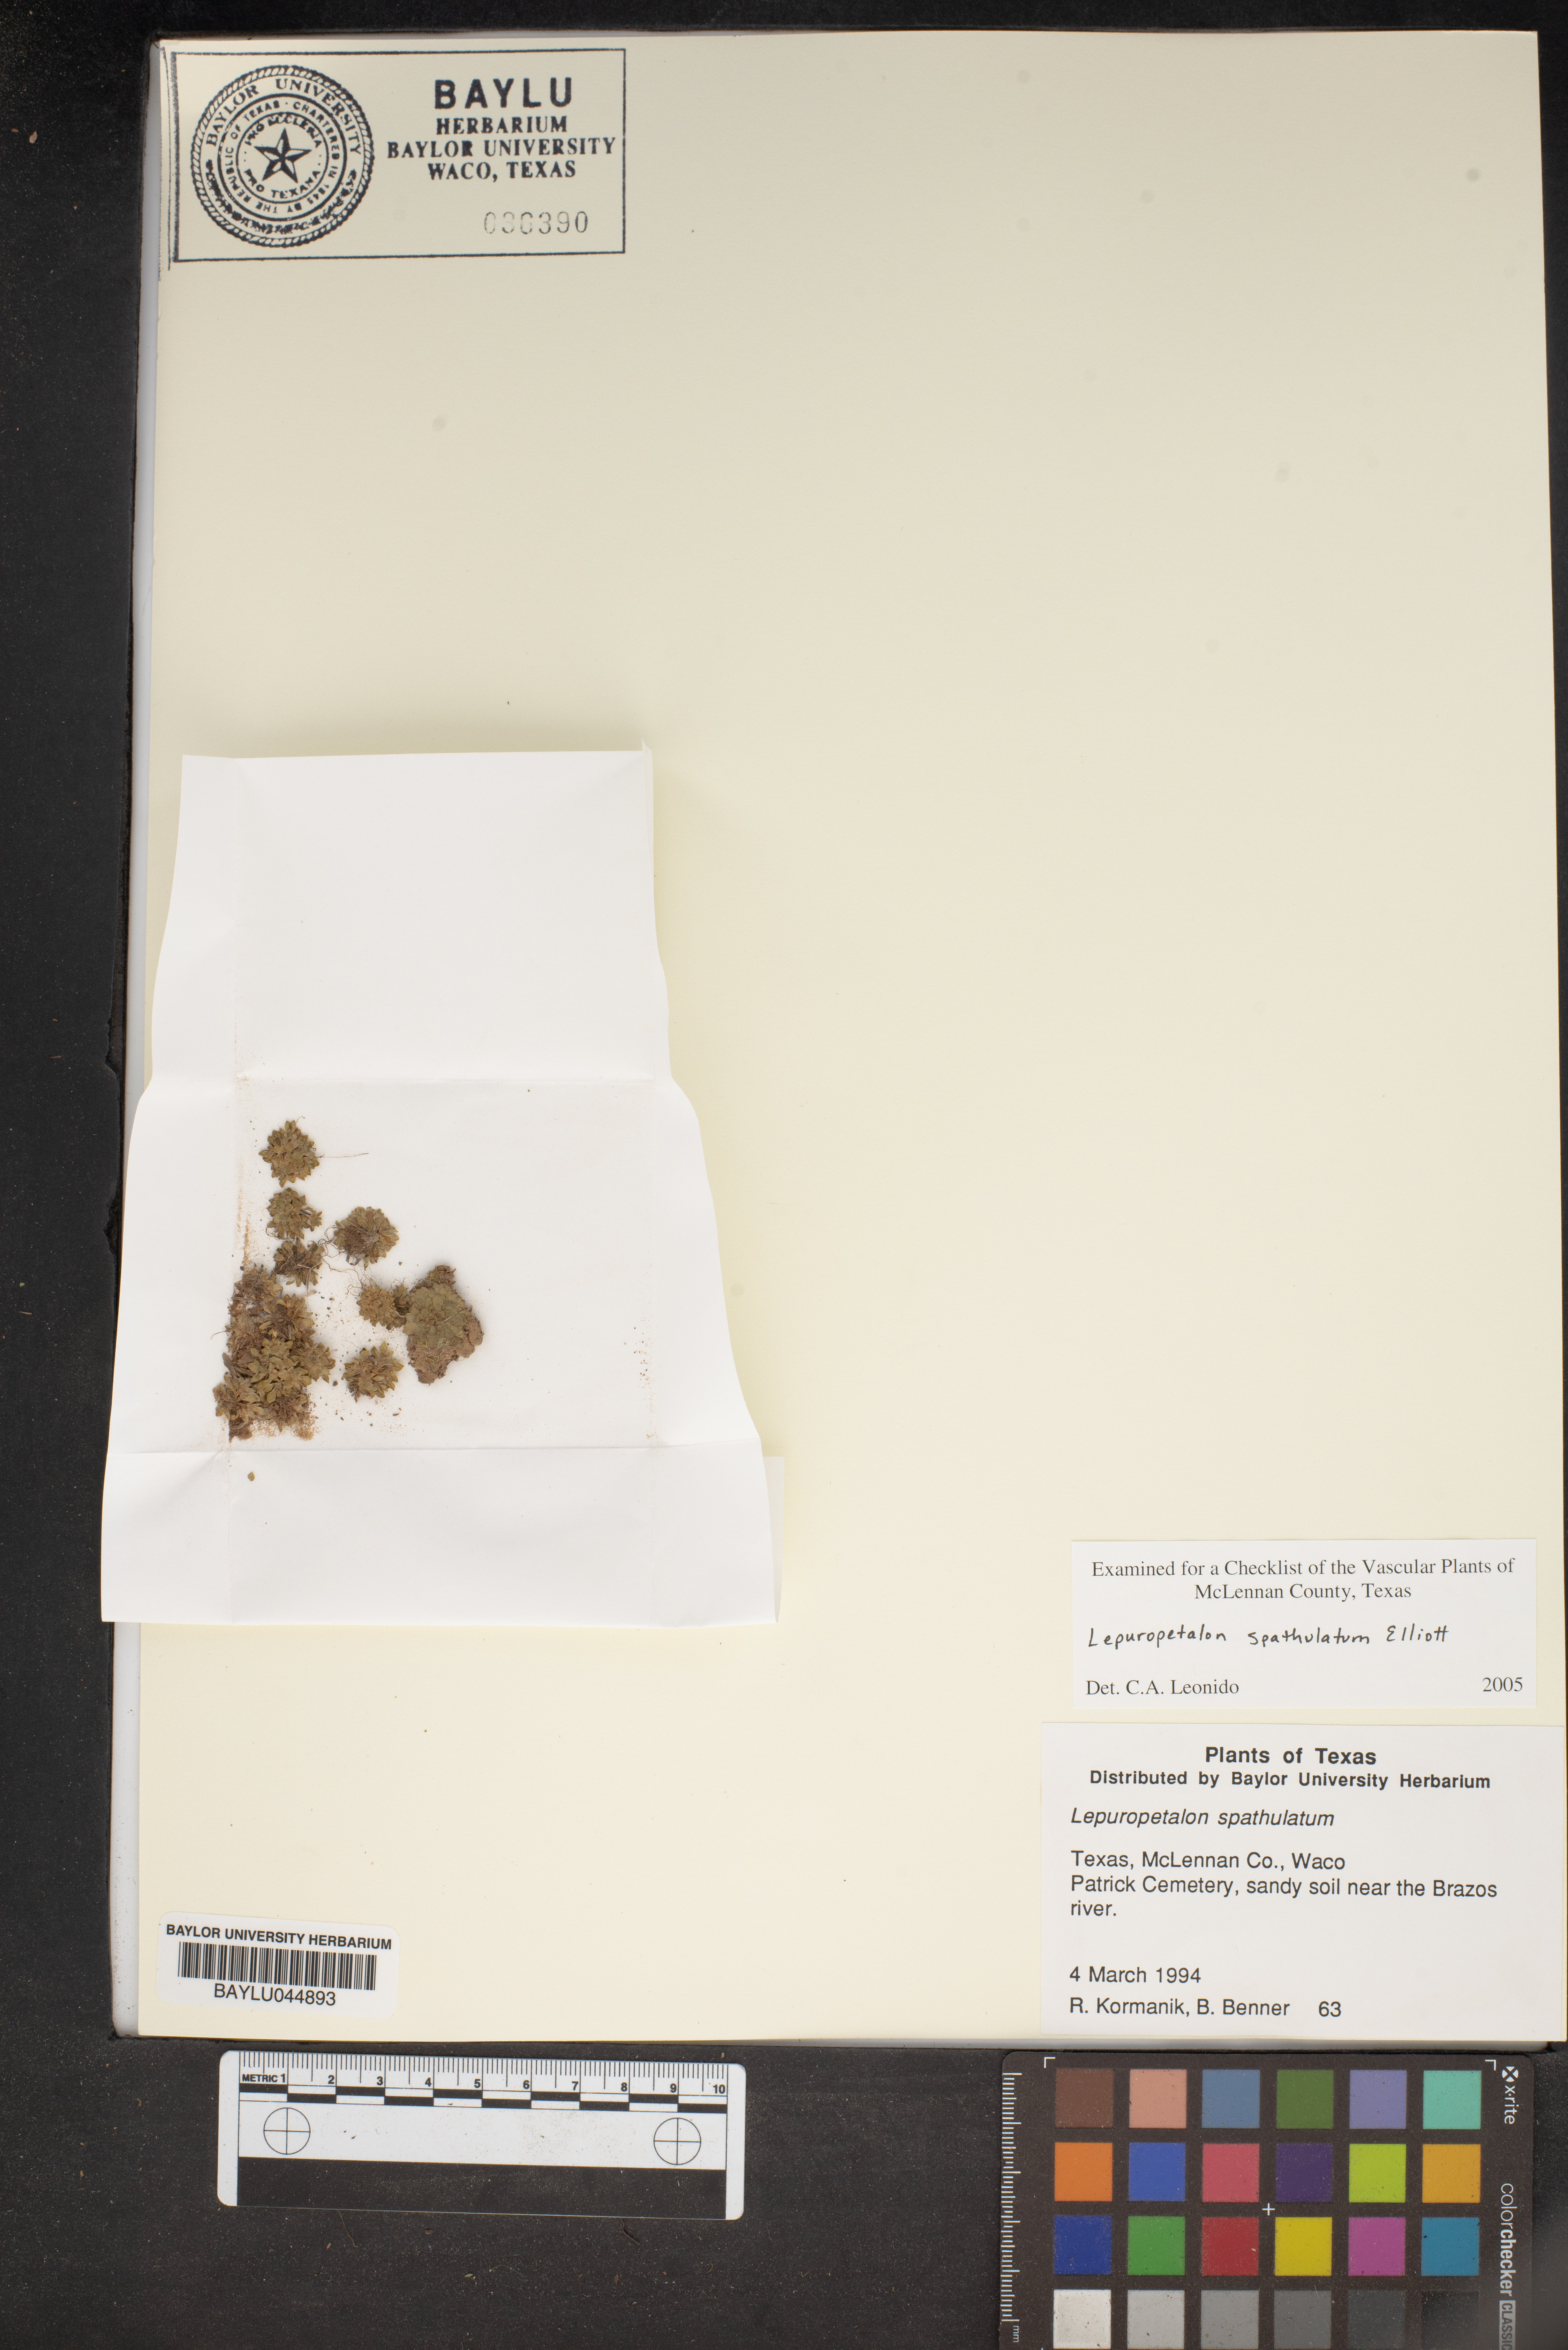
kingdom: Plantae
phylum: Tracheophyta
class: Magnoliopsida
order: Celastrales
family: Parnassiaceae
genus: Lepuropetalon
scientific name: Lepuropetalon spathulatum
